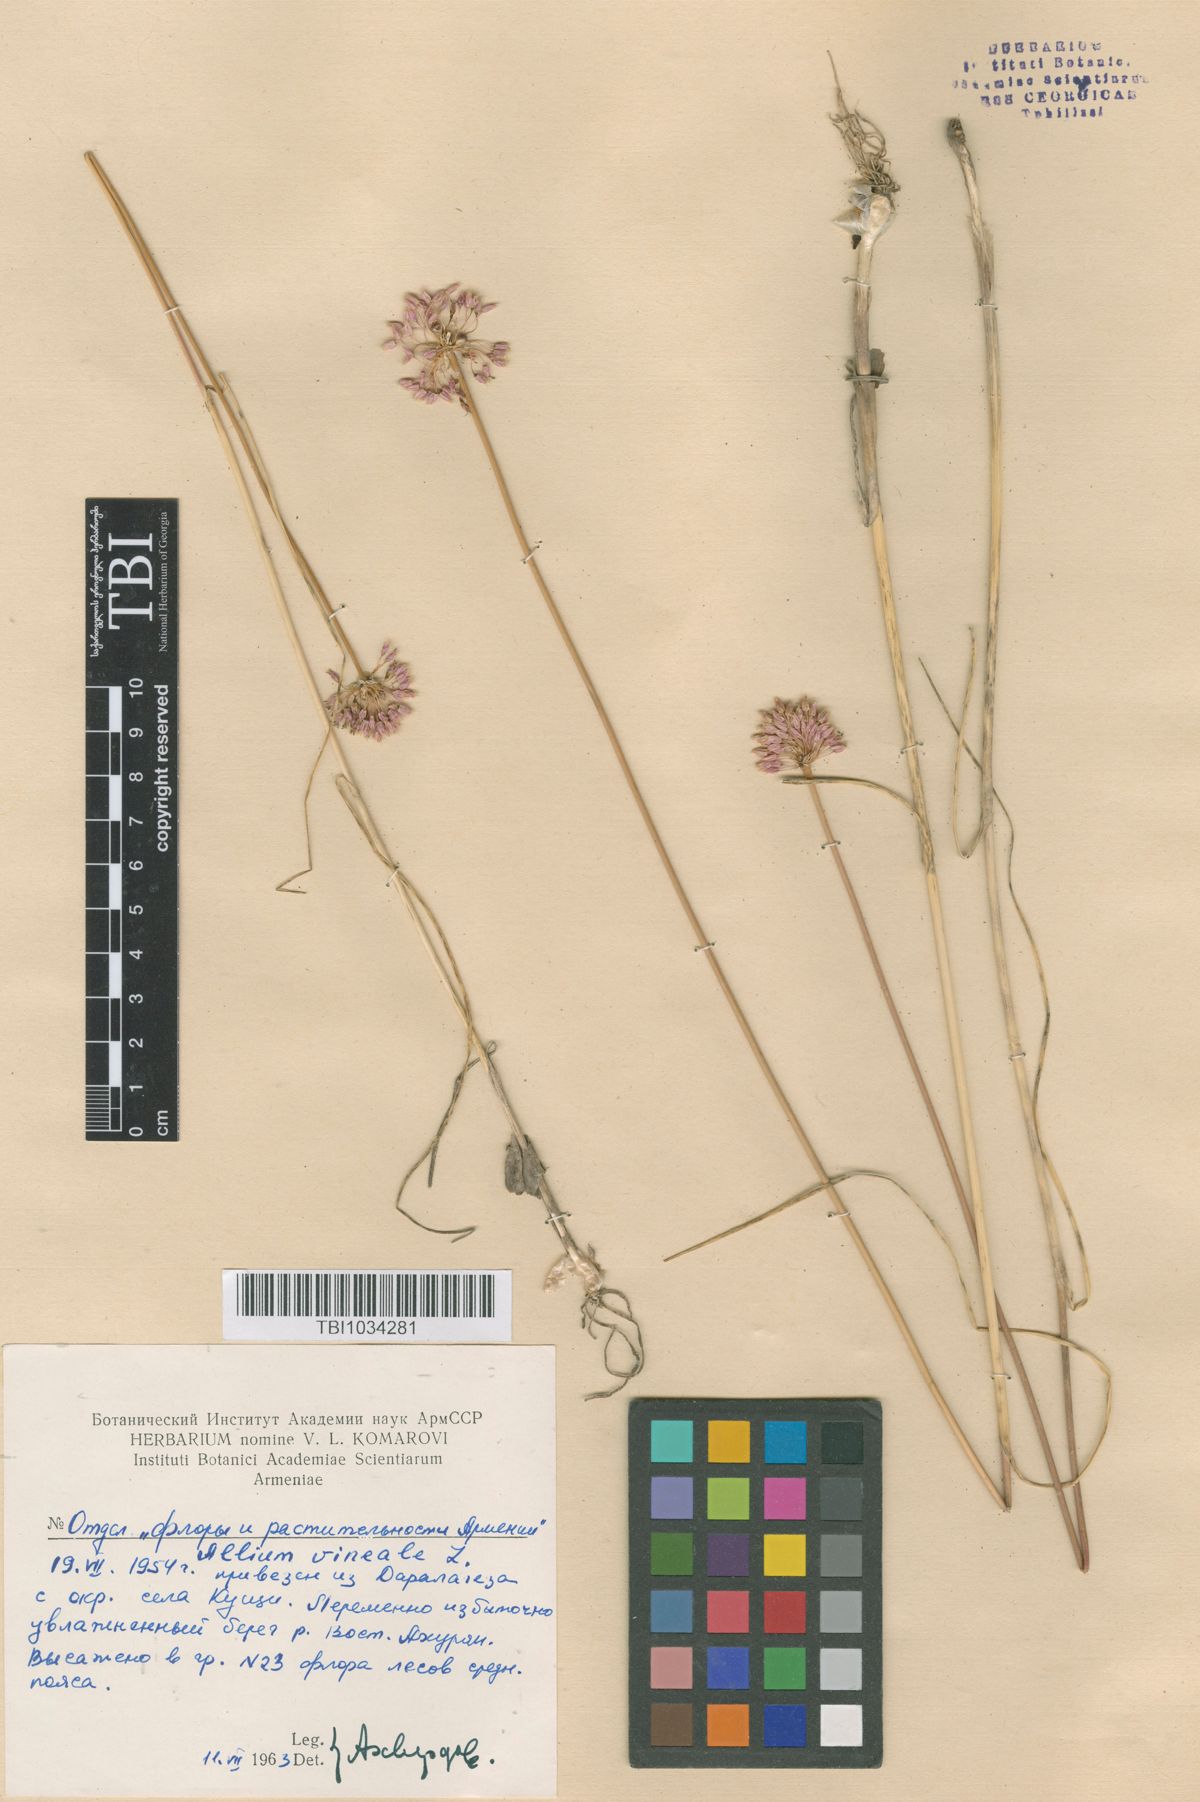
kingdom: Plantae
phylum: Tracheophyta
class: Liliopsida
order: Asparagales
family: Amaryllidaceae
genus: Allium
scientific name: Allium vineale
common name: Crow garlic
